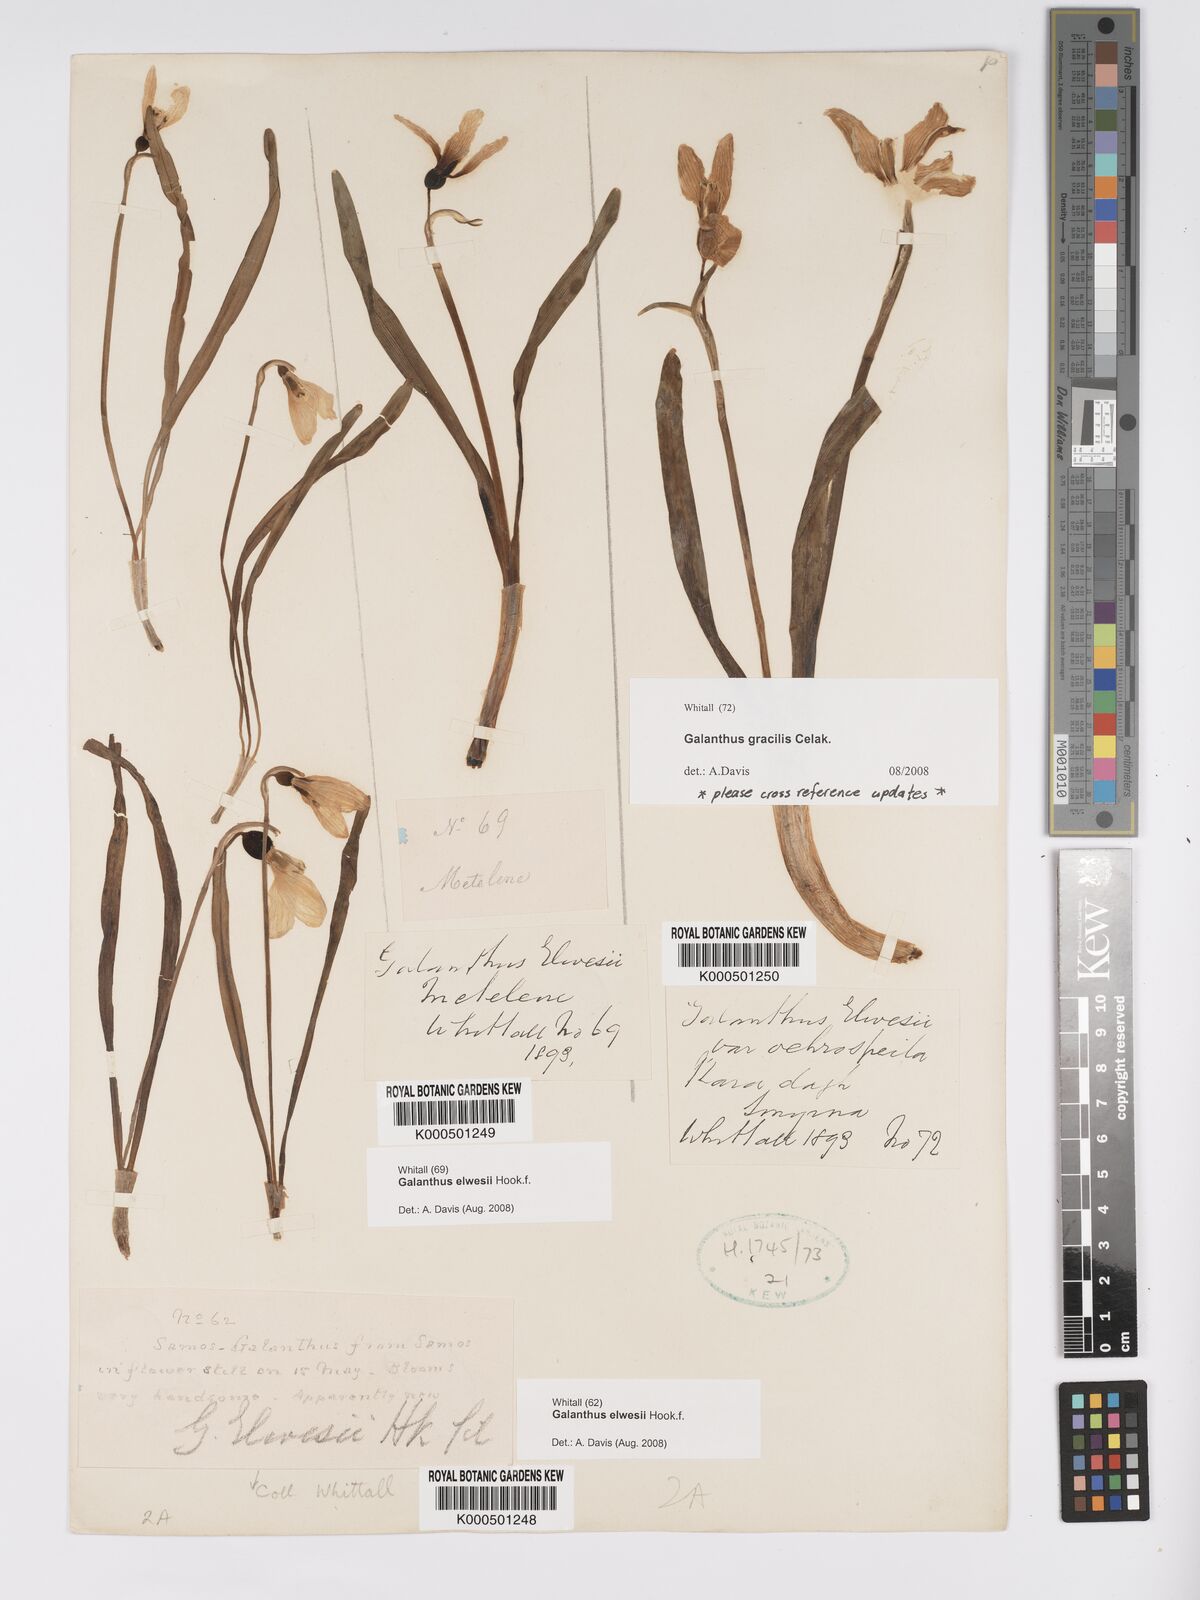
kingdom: Plantae
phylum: Tracheophyta
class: Liliopsida
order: Asparagales
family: Amaryllidaceae
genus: Galanthus
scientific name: Galanthus elwesii
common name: Greater snowdrop
